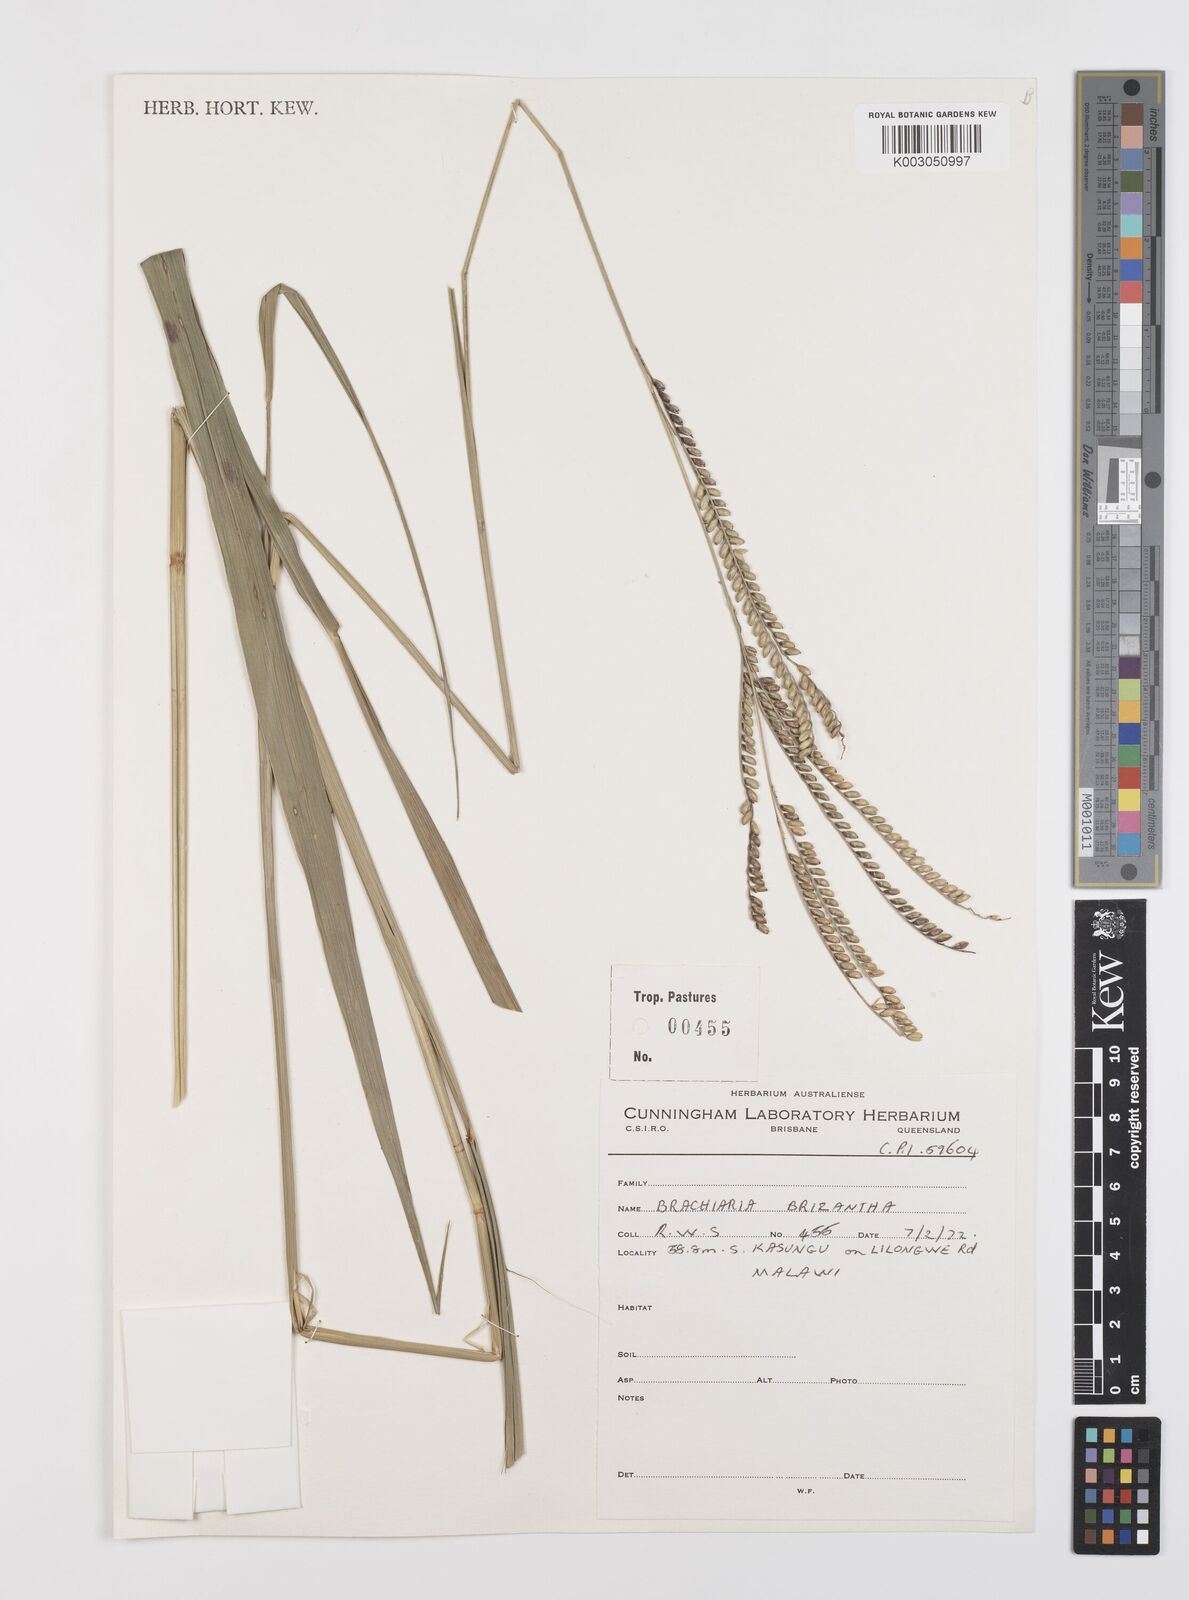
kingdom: Plantae
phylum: Tracheophyta
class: Liliopsida
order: Poales
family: Poaceae
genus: Urochloa
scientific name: Urochloa brizantha
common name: Palisade signalgrass
